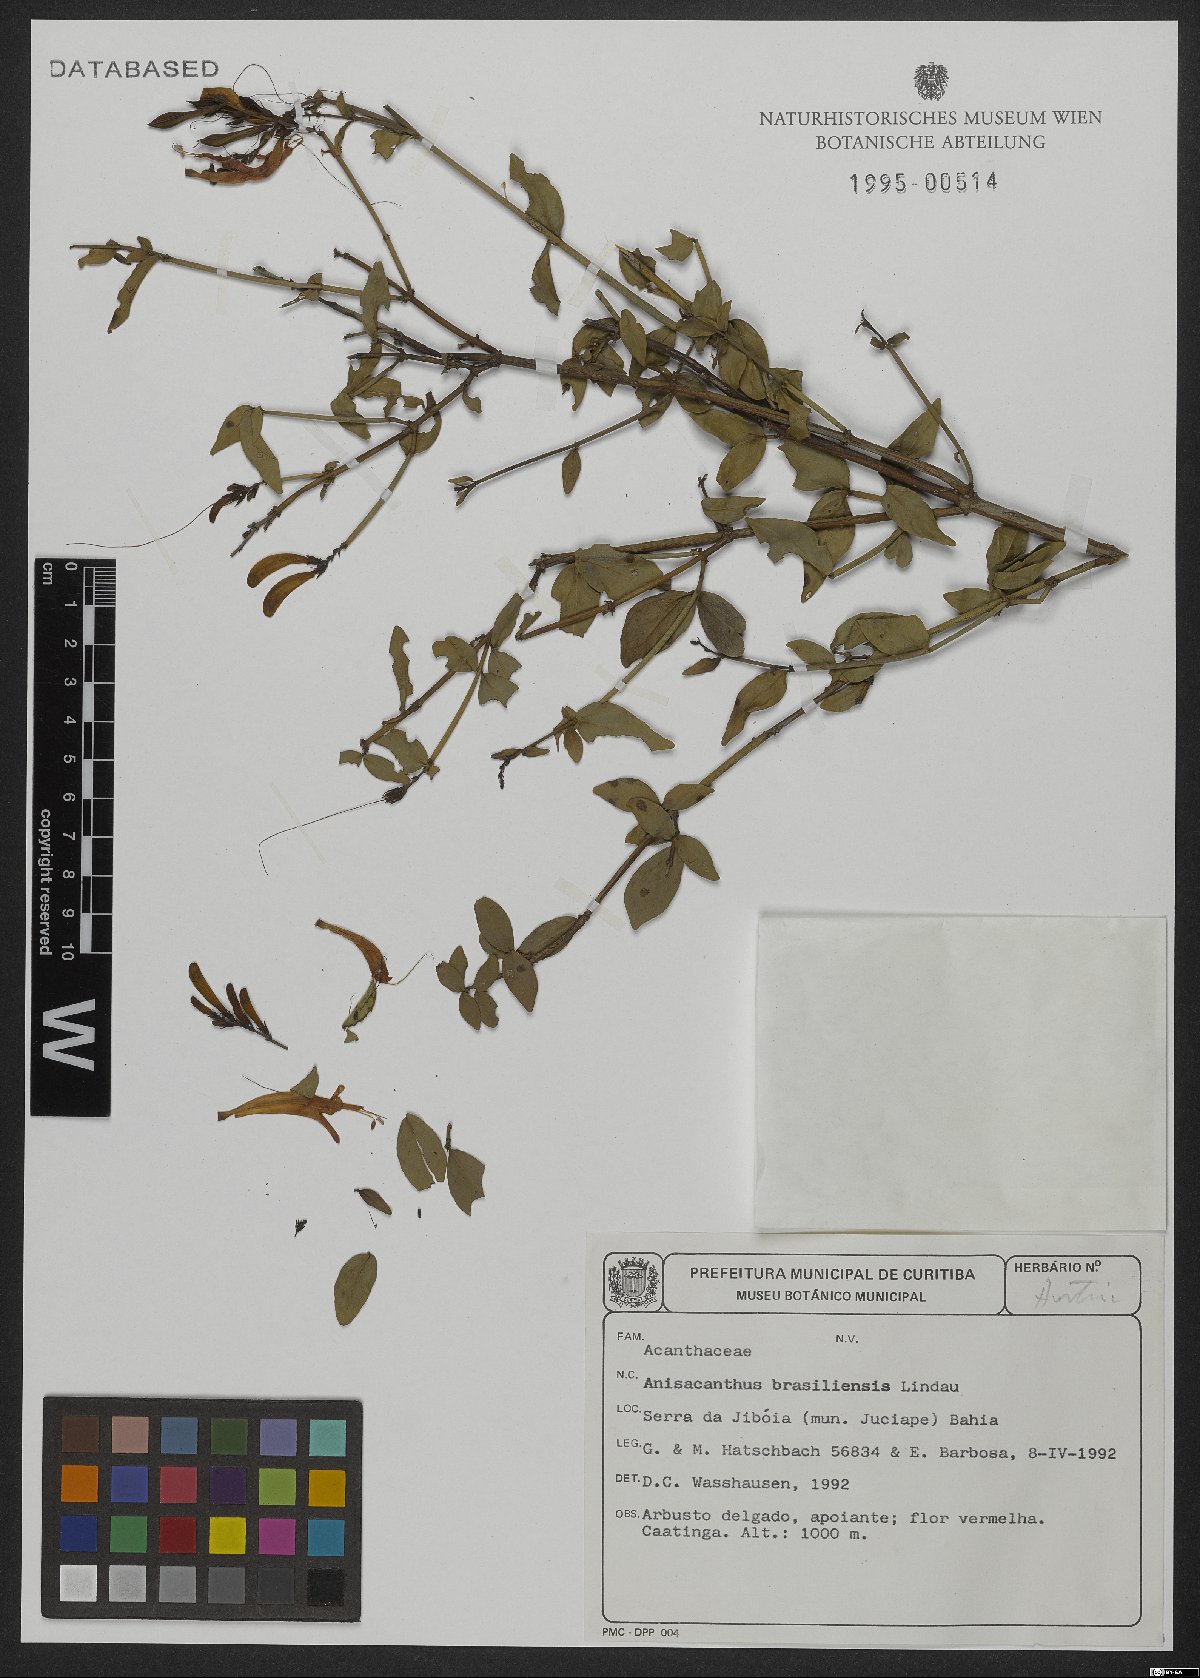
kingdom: Plantae
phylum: Tracheophyta
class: Magnoliopsida
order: Lamiales
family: Acanthaceae
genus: Thyrsacanthus
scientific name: Thyrsacanthus ramosissimus
